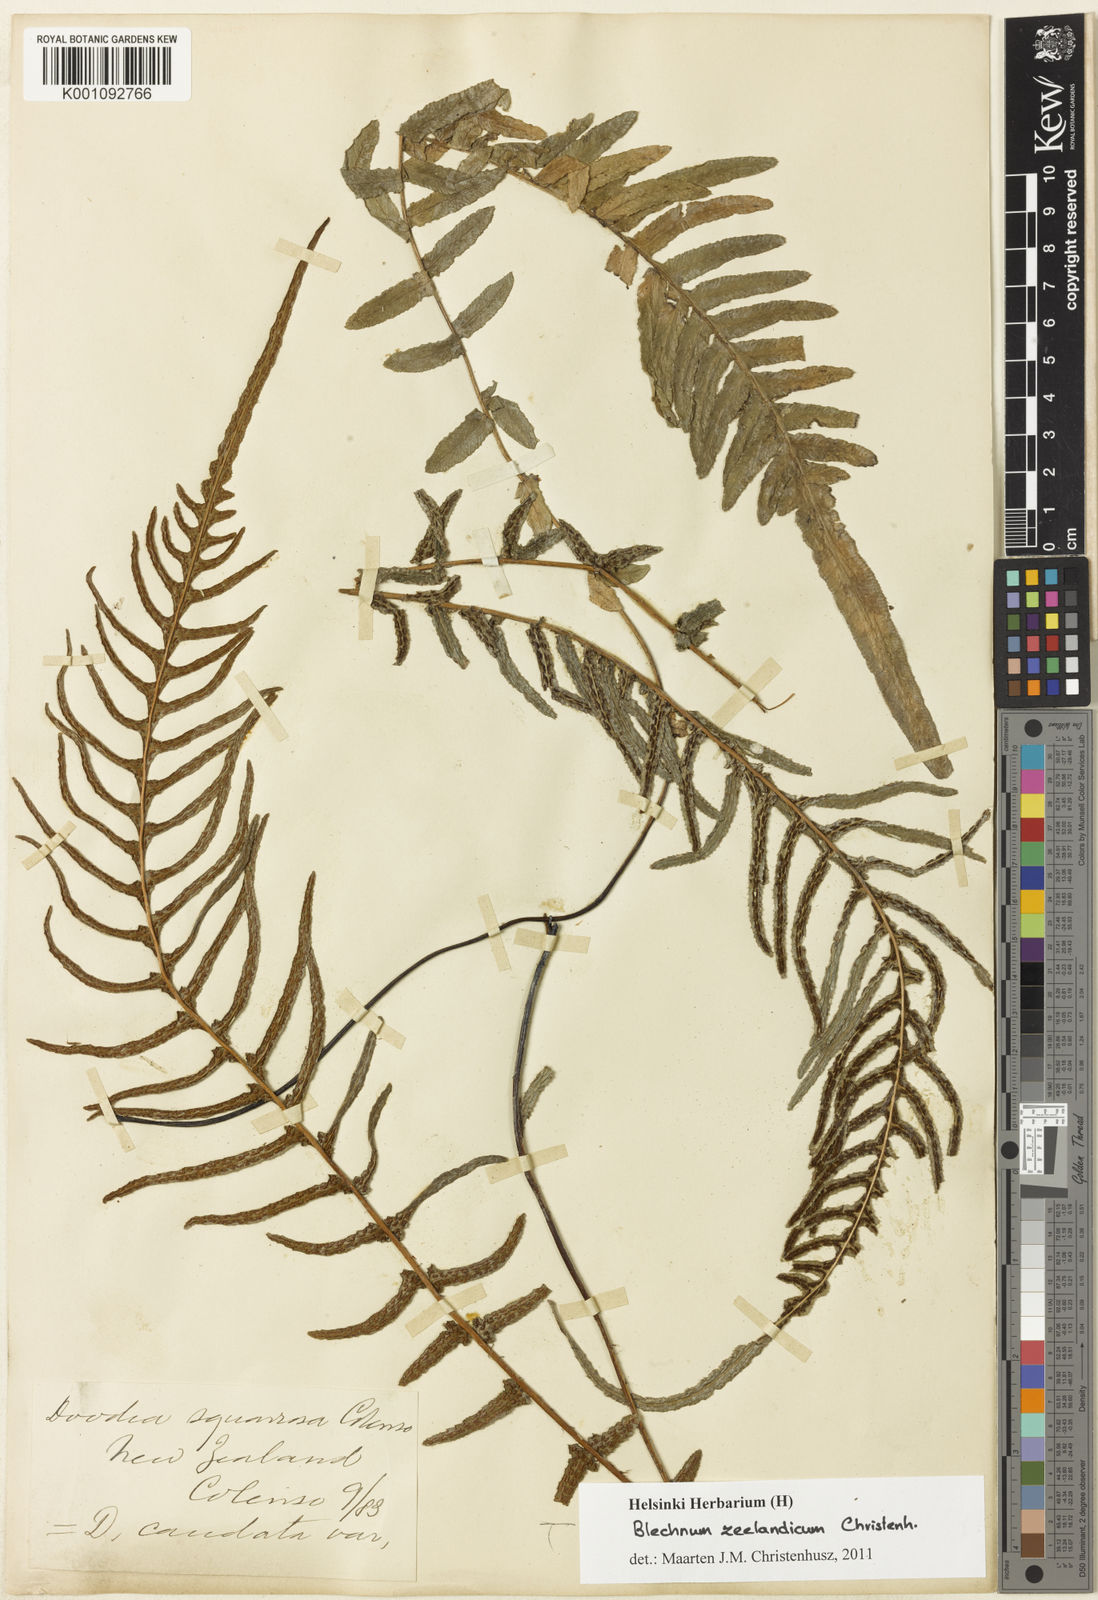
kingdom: Plantae
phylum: Tracheophyta
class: Polypodiopsida
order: Polypodiales
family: Blechnaceae
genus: Doodia
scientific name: Doodia
